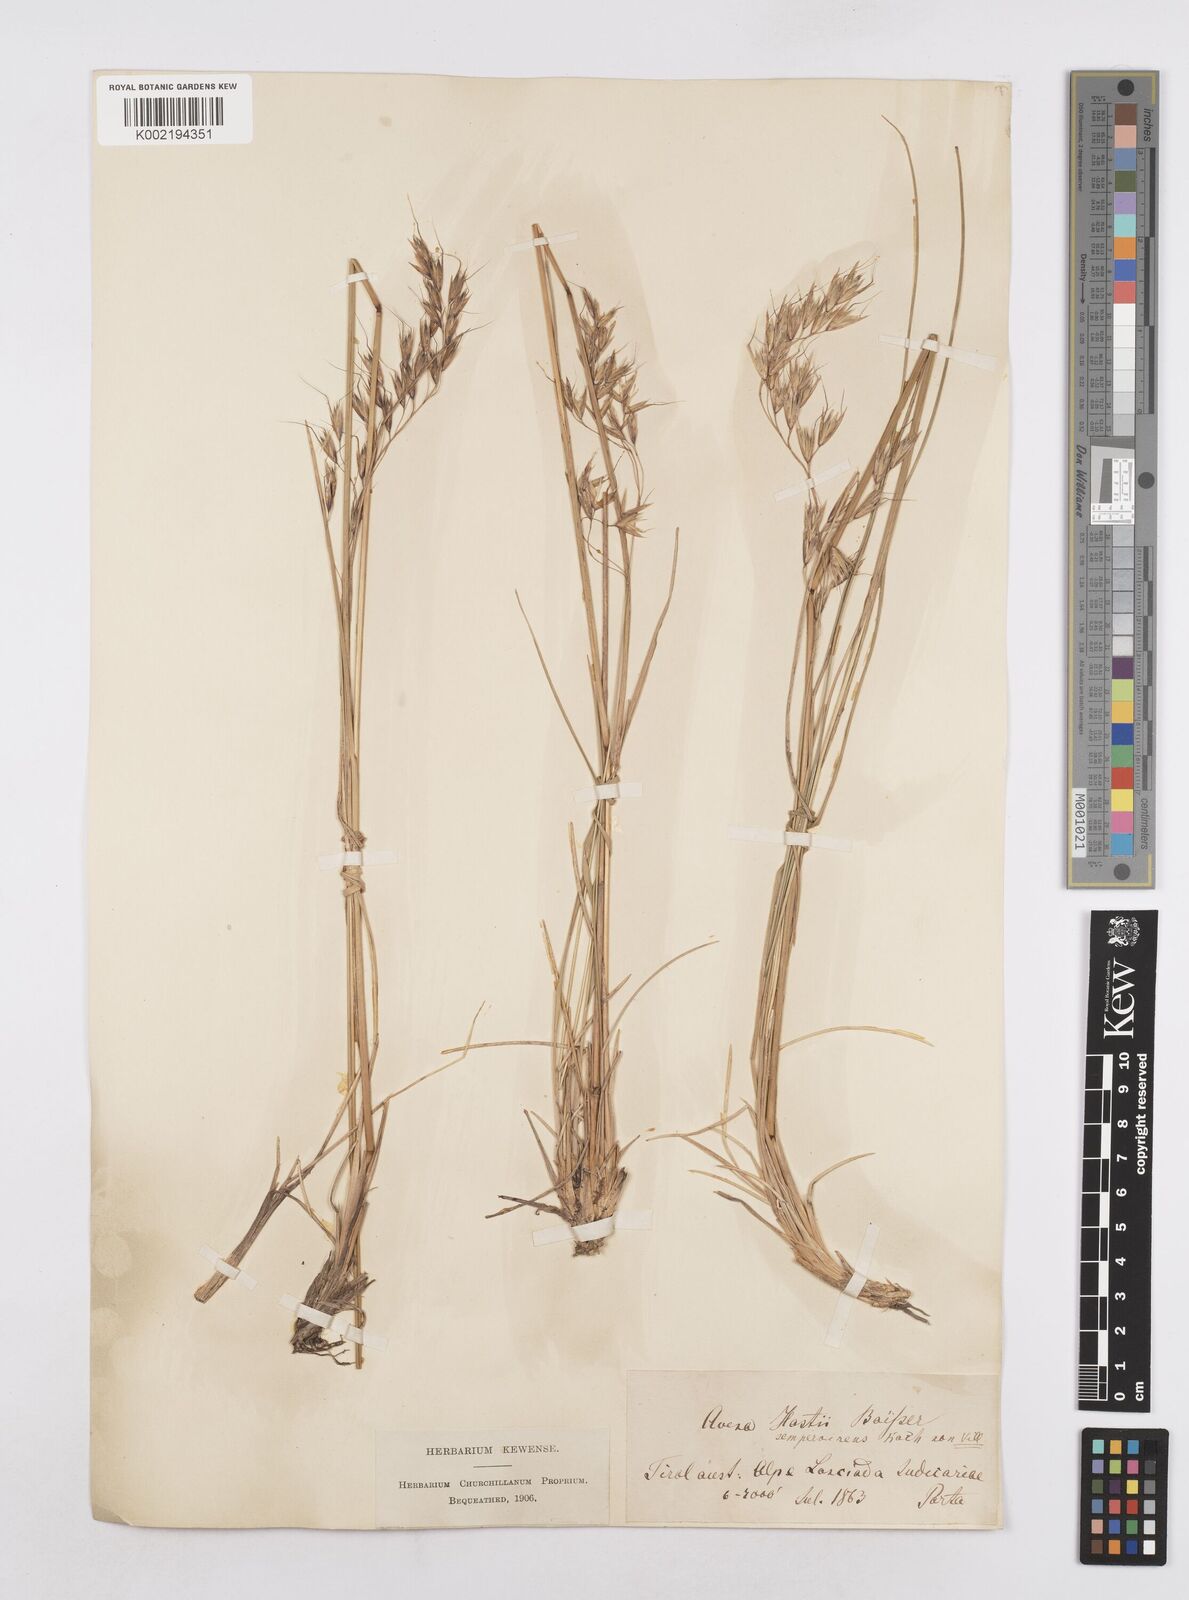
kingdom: Plantae
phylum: Tracheophyta
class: Liliopsida
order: Poales
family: Poaceae
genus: Helictotrichon
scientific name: Helictotrichon parlatorei
